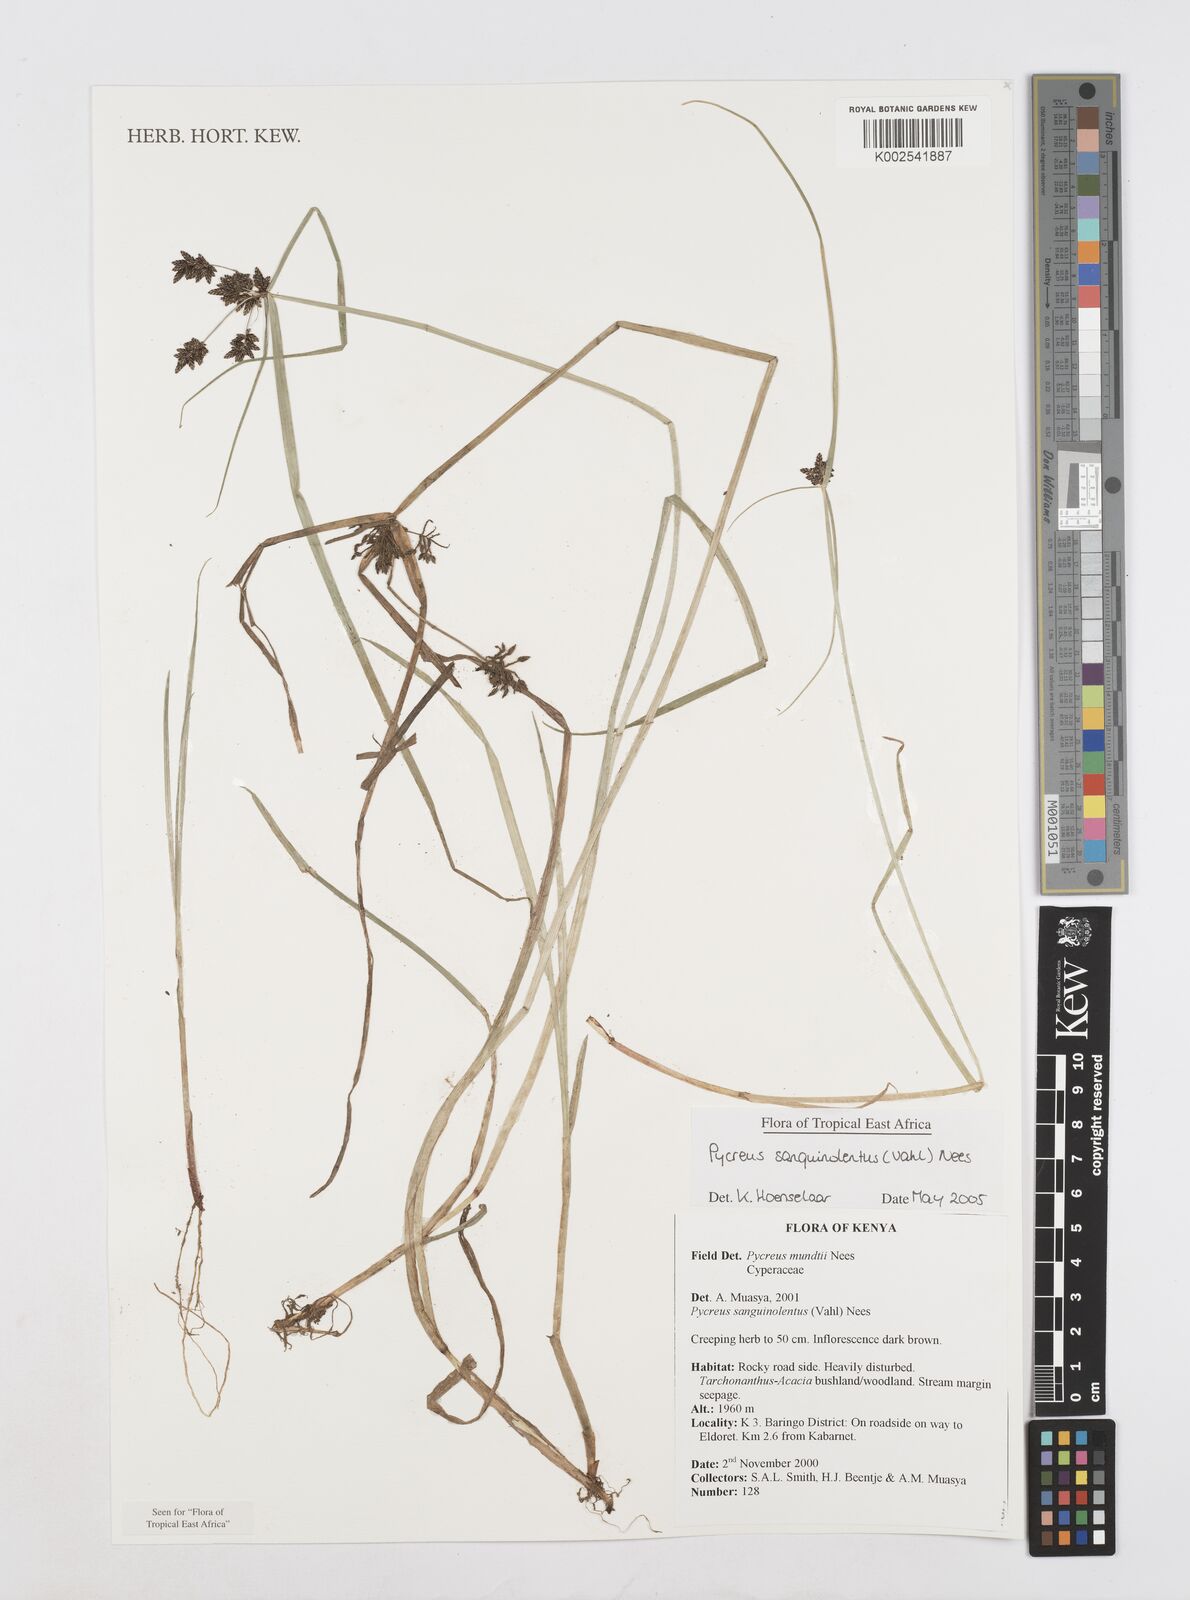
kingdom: Plantae
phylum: Tracheophyta
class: Liliopsida
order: Poales
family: Cyperaceae
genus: Cyperus
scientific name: Cyperus sanguinolentus
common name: Purpleglume flatsedge
